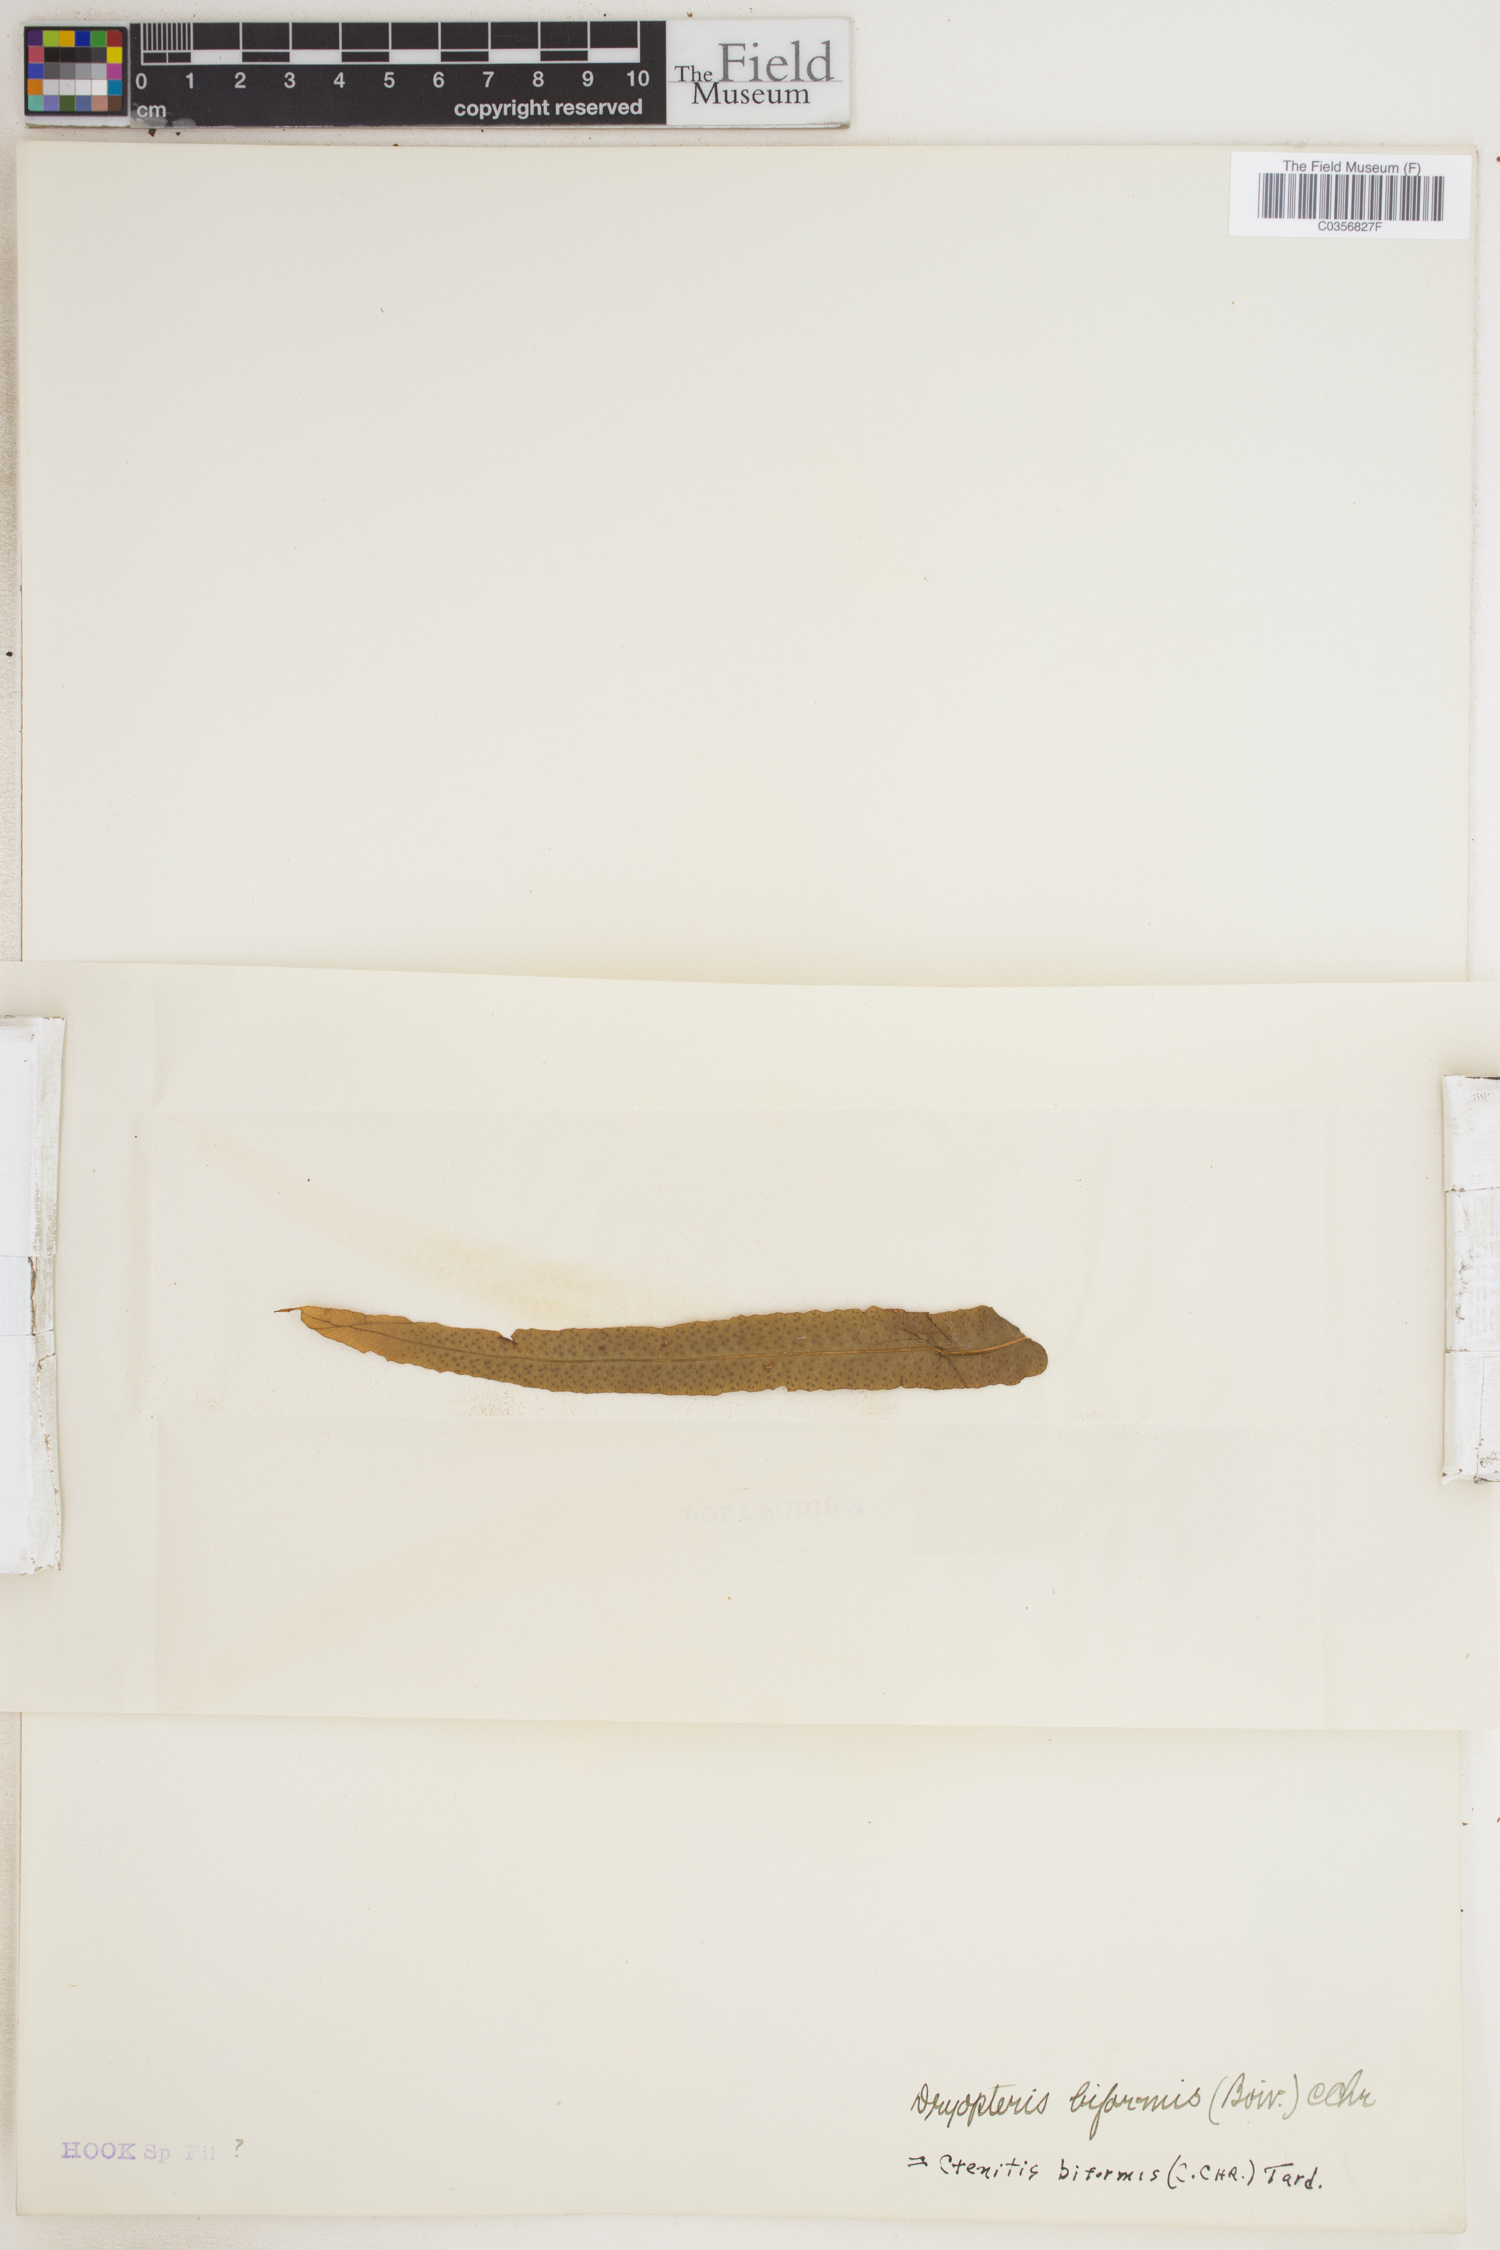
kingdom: Plantae
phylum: Tracheophyta
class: Polypodiopsida
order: Polypodiales
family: Dryopteridaceae
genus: Ctenitis
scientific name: Ctenitis biformis
